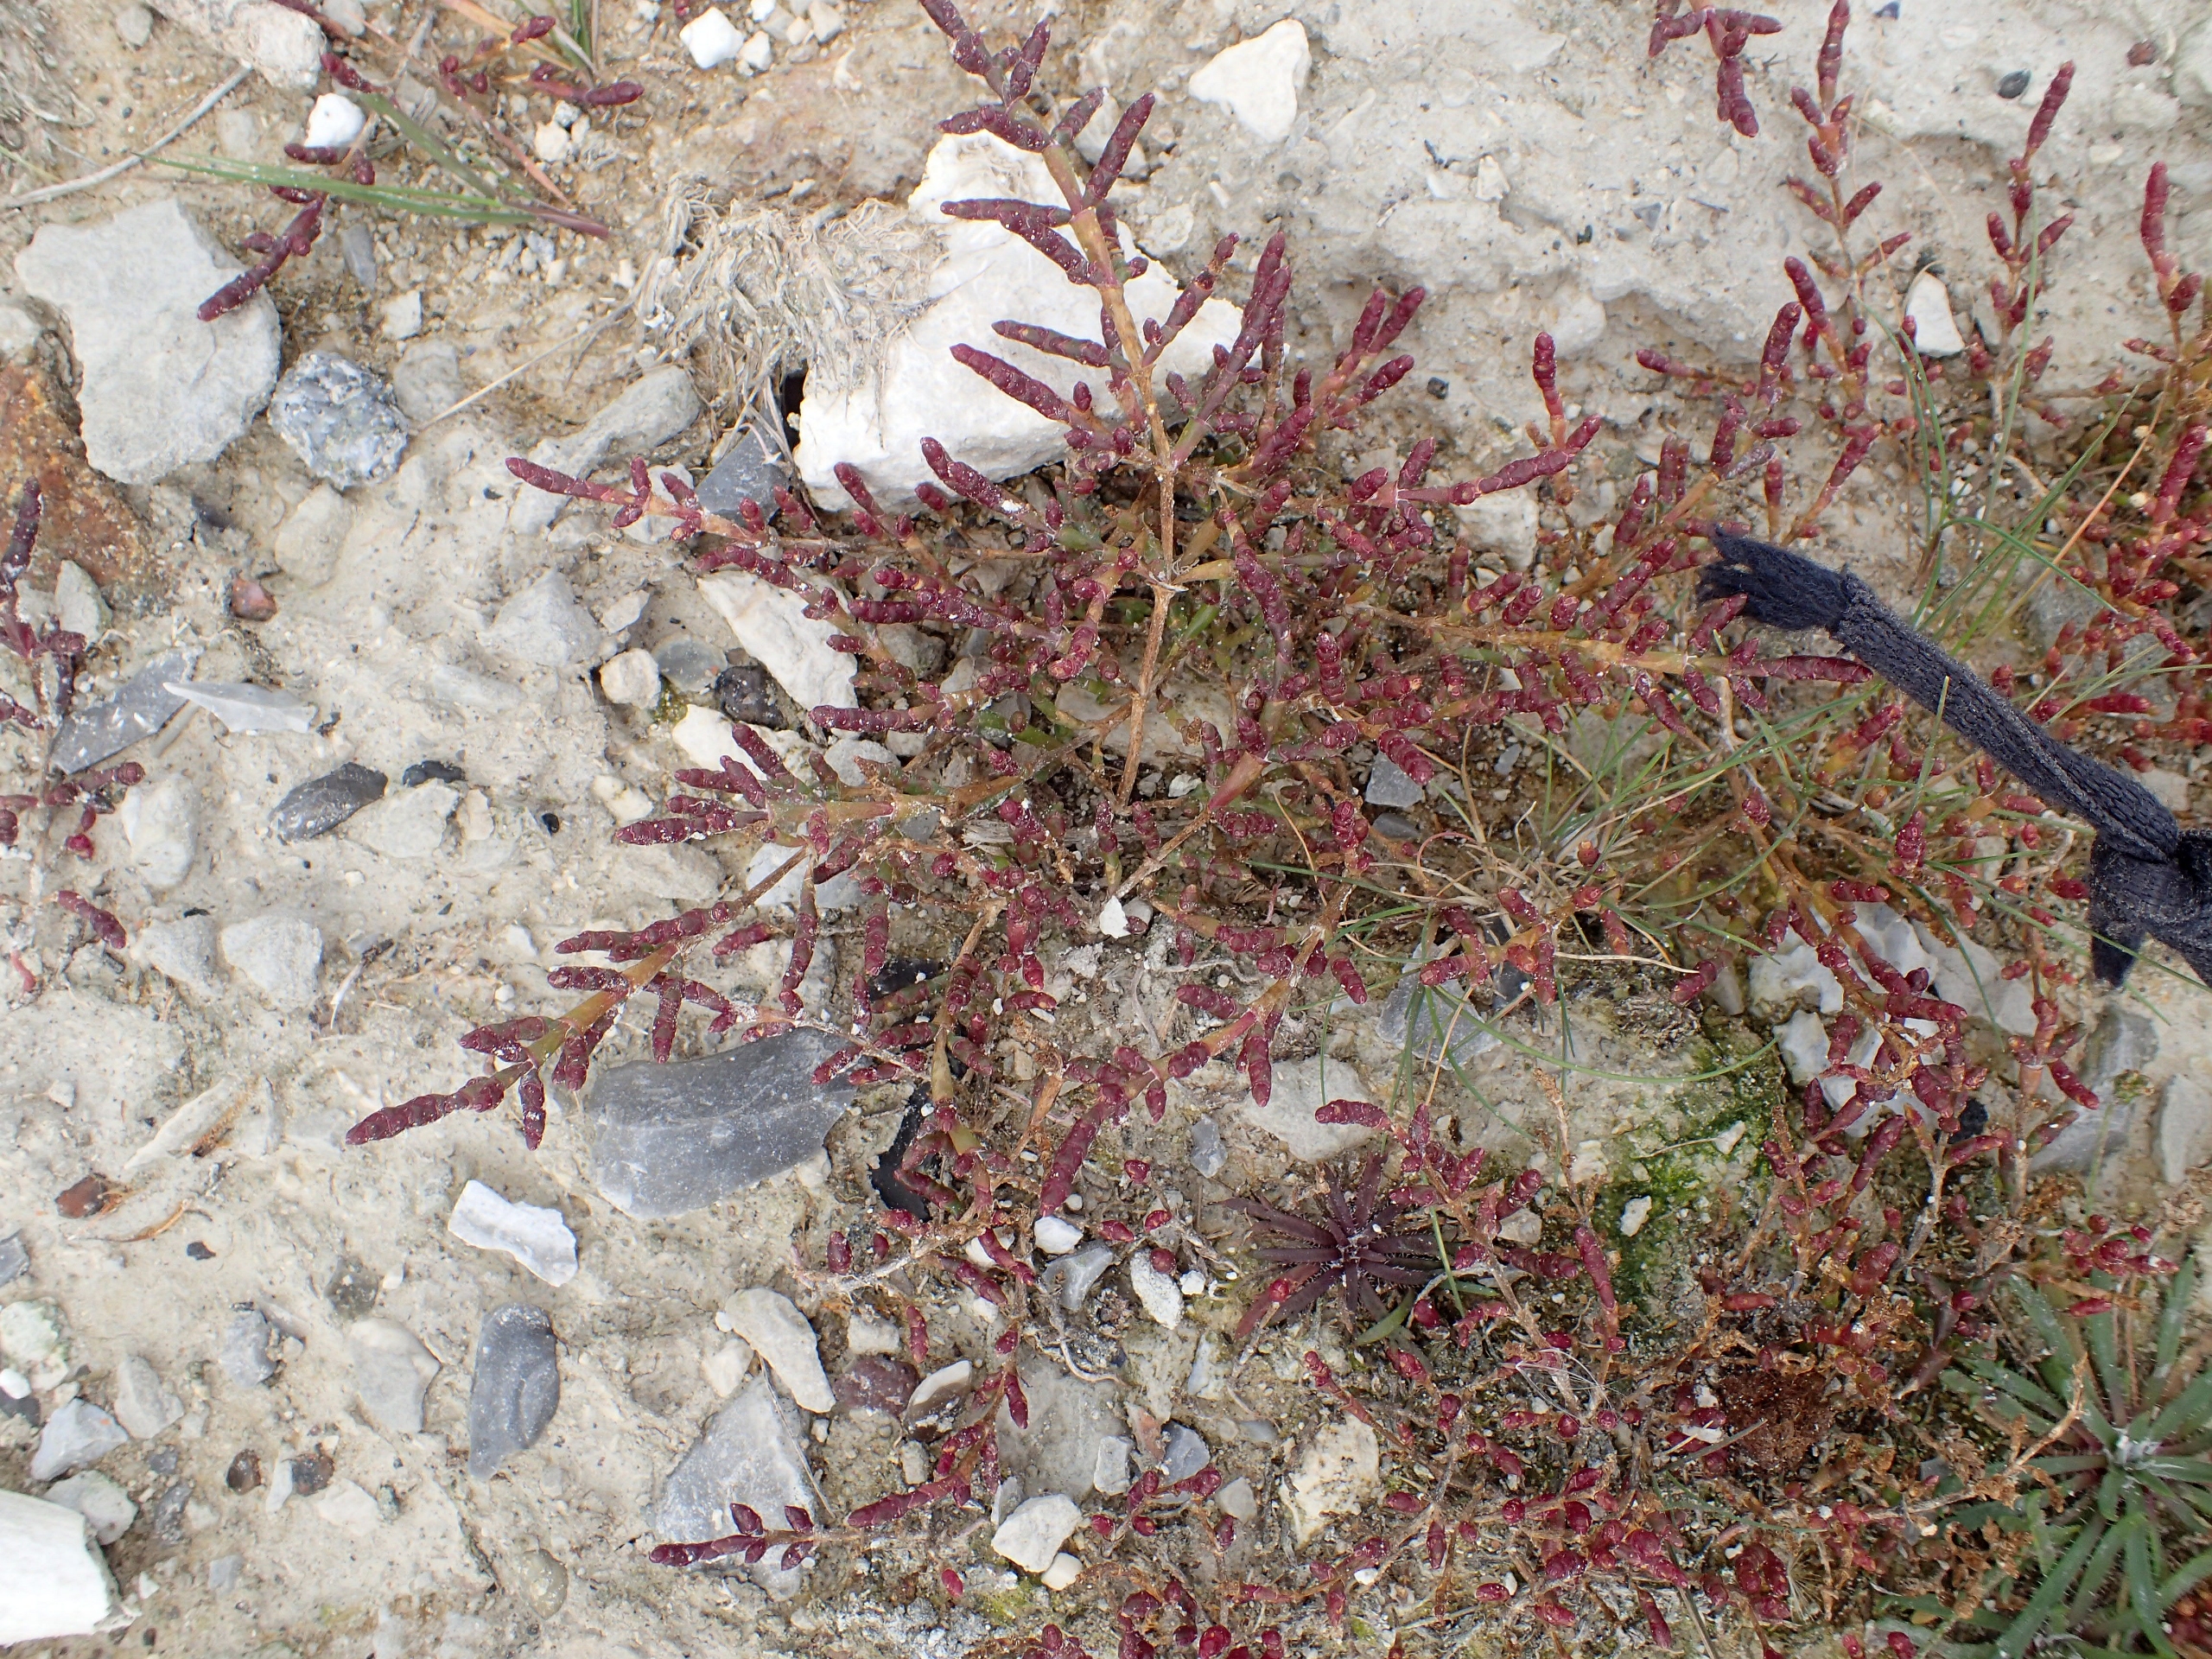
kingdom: Plantae
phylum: Tracheophyta
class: Magnoliopsida
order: Caryophyllales
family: Amaranthaceae
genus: Salicornia
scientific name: Salicornia europaea
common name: Almindelig salturt
